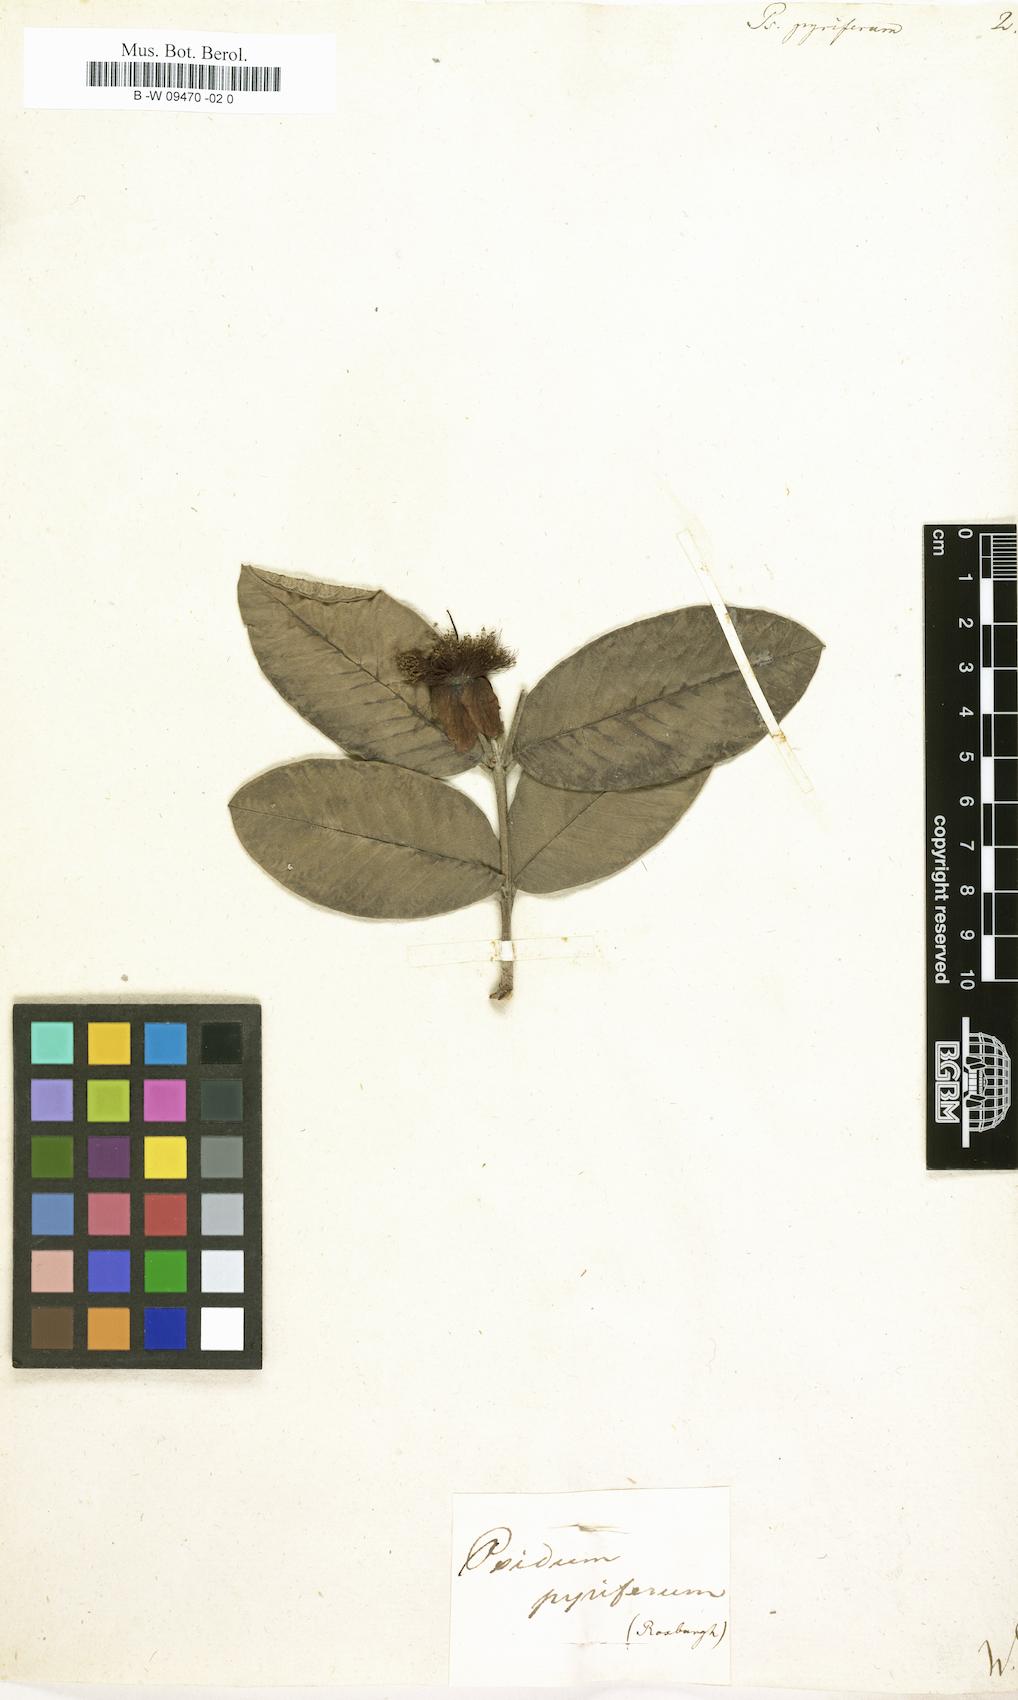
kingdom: Plantae
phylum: Tracheophyta
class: Magnoliopsida
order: Myrtales
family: Myrtaceae
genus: Psidium
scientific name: Psidium guajava
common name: Guava
